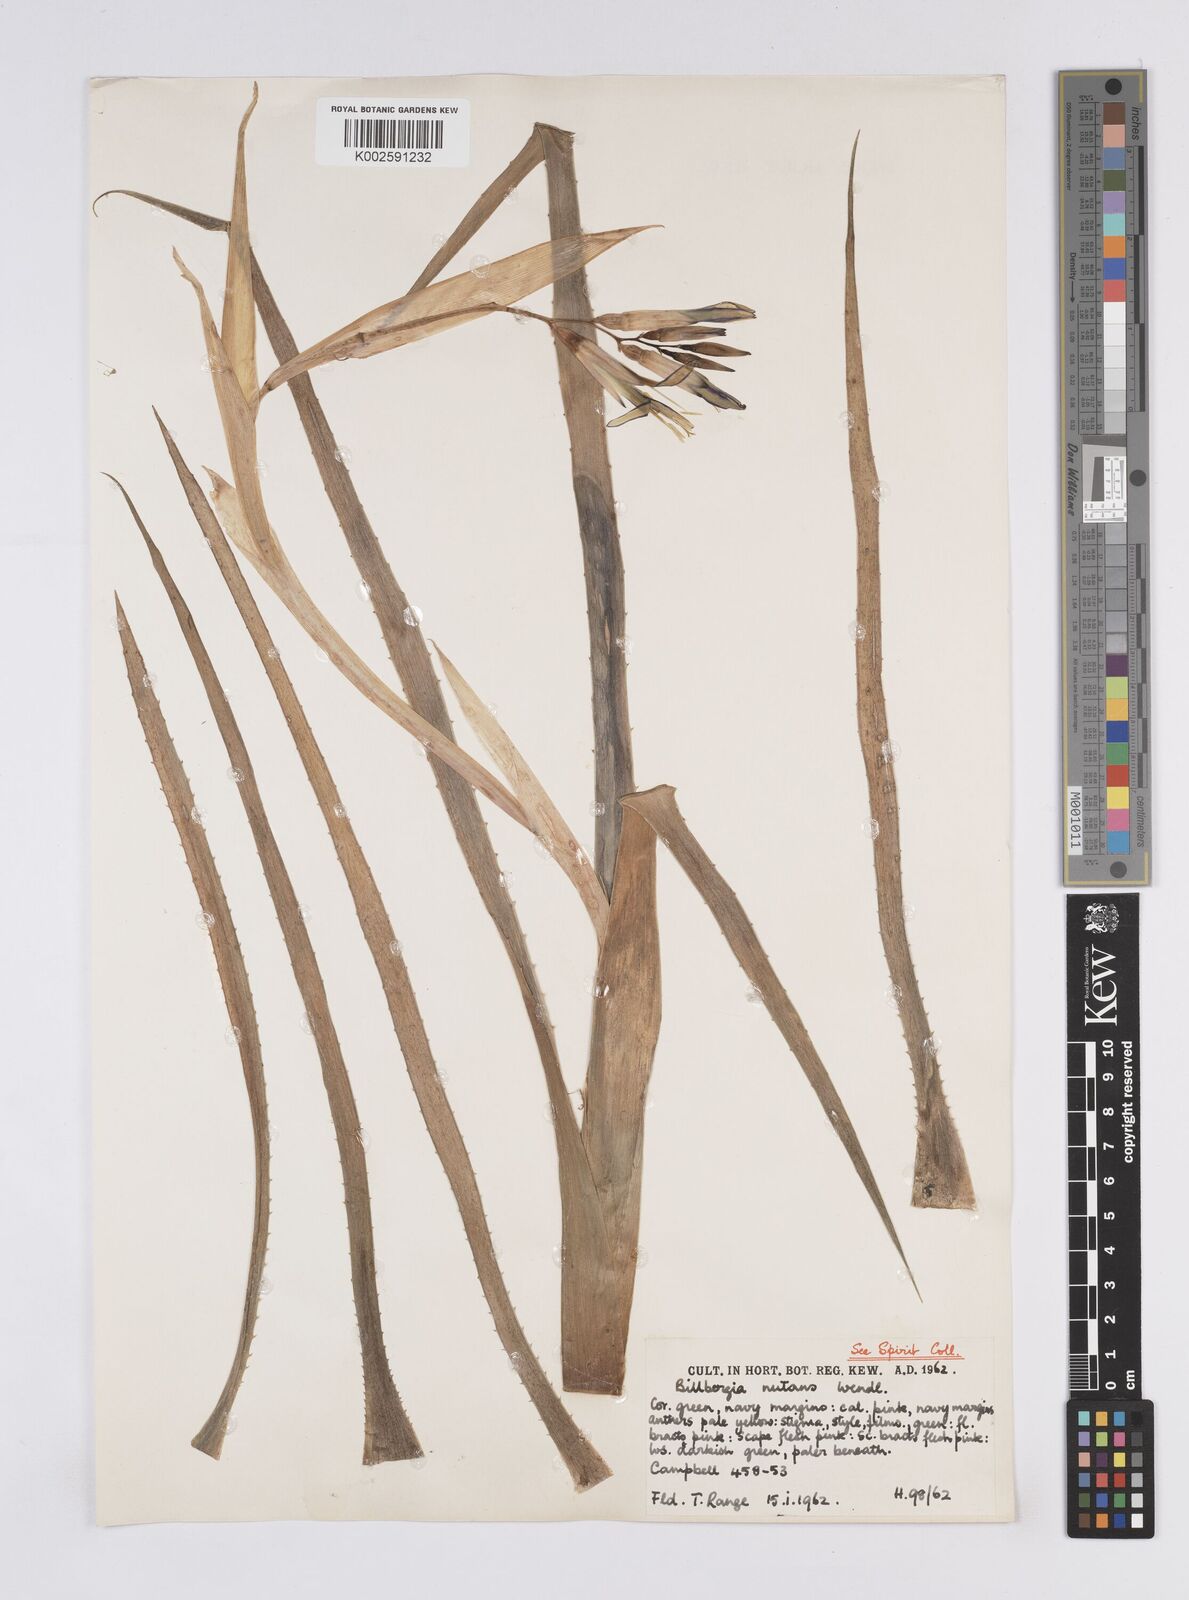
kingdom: Plantae
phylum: Tracheophyta
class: Liliopsida
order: Poales
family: Bromeliaceae
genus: Billbergia
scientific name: Billbergia nutans
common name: Friendship-plant
